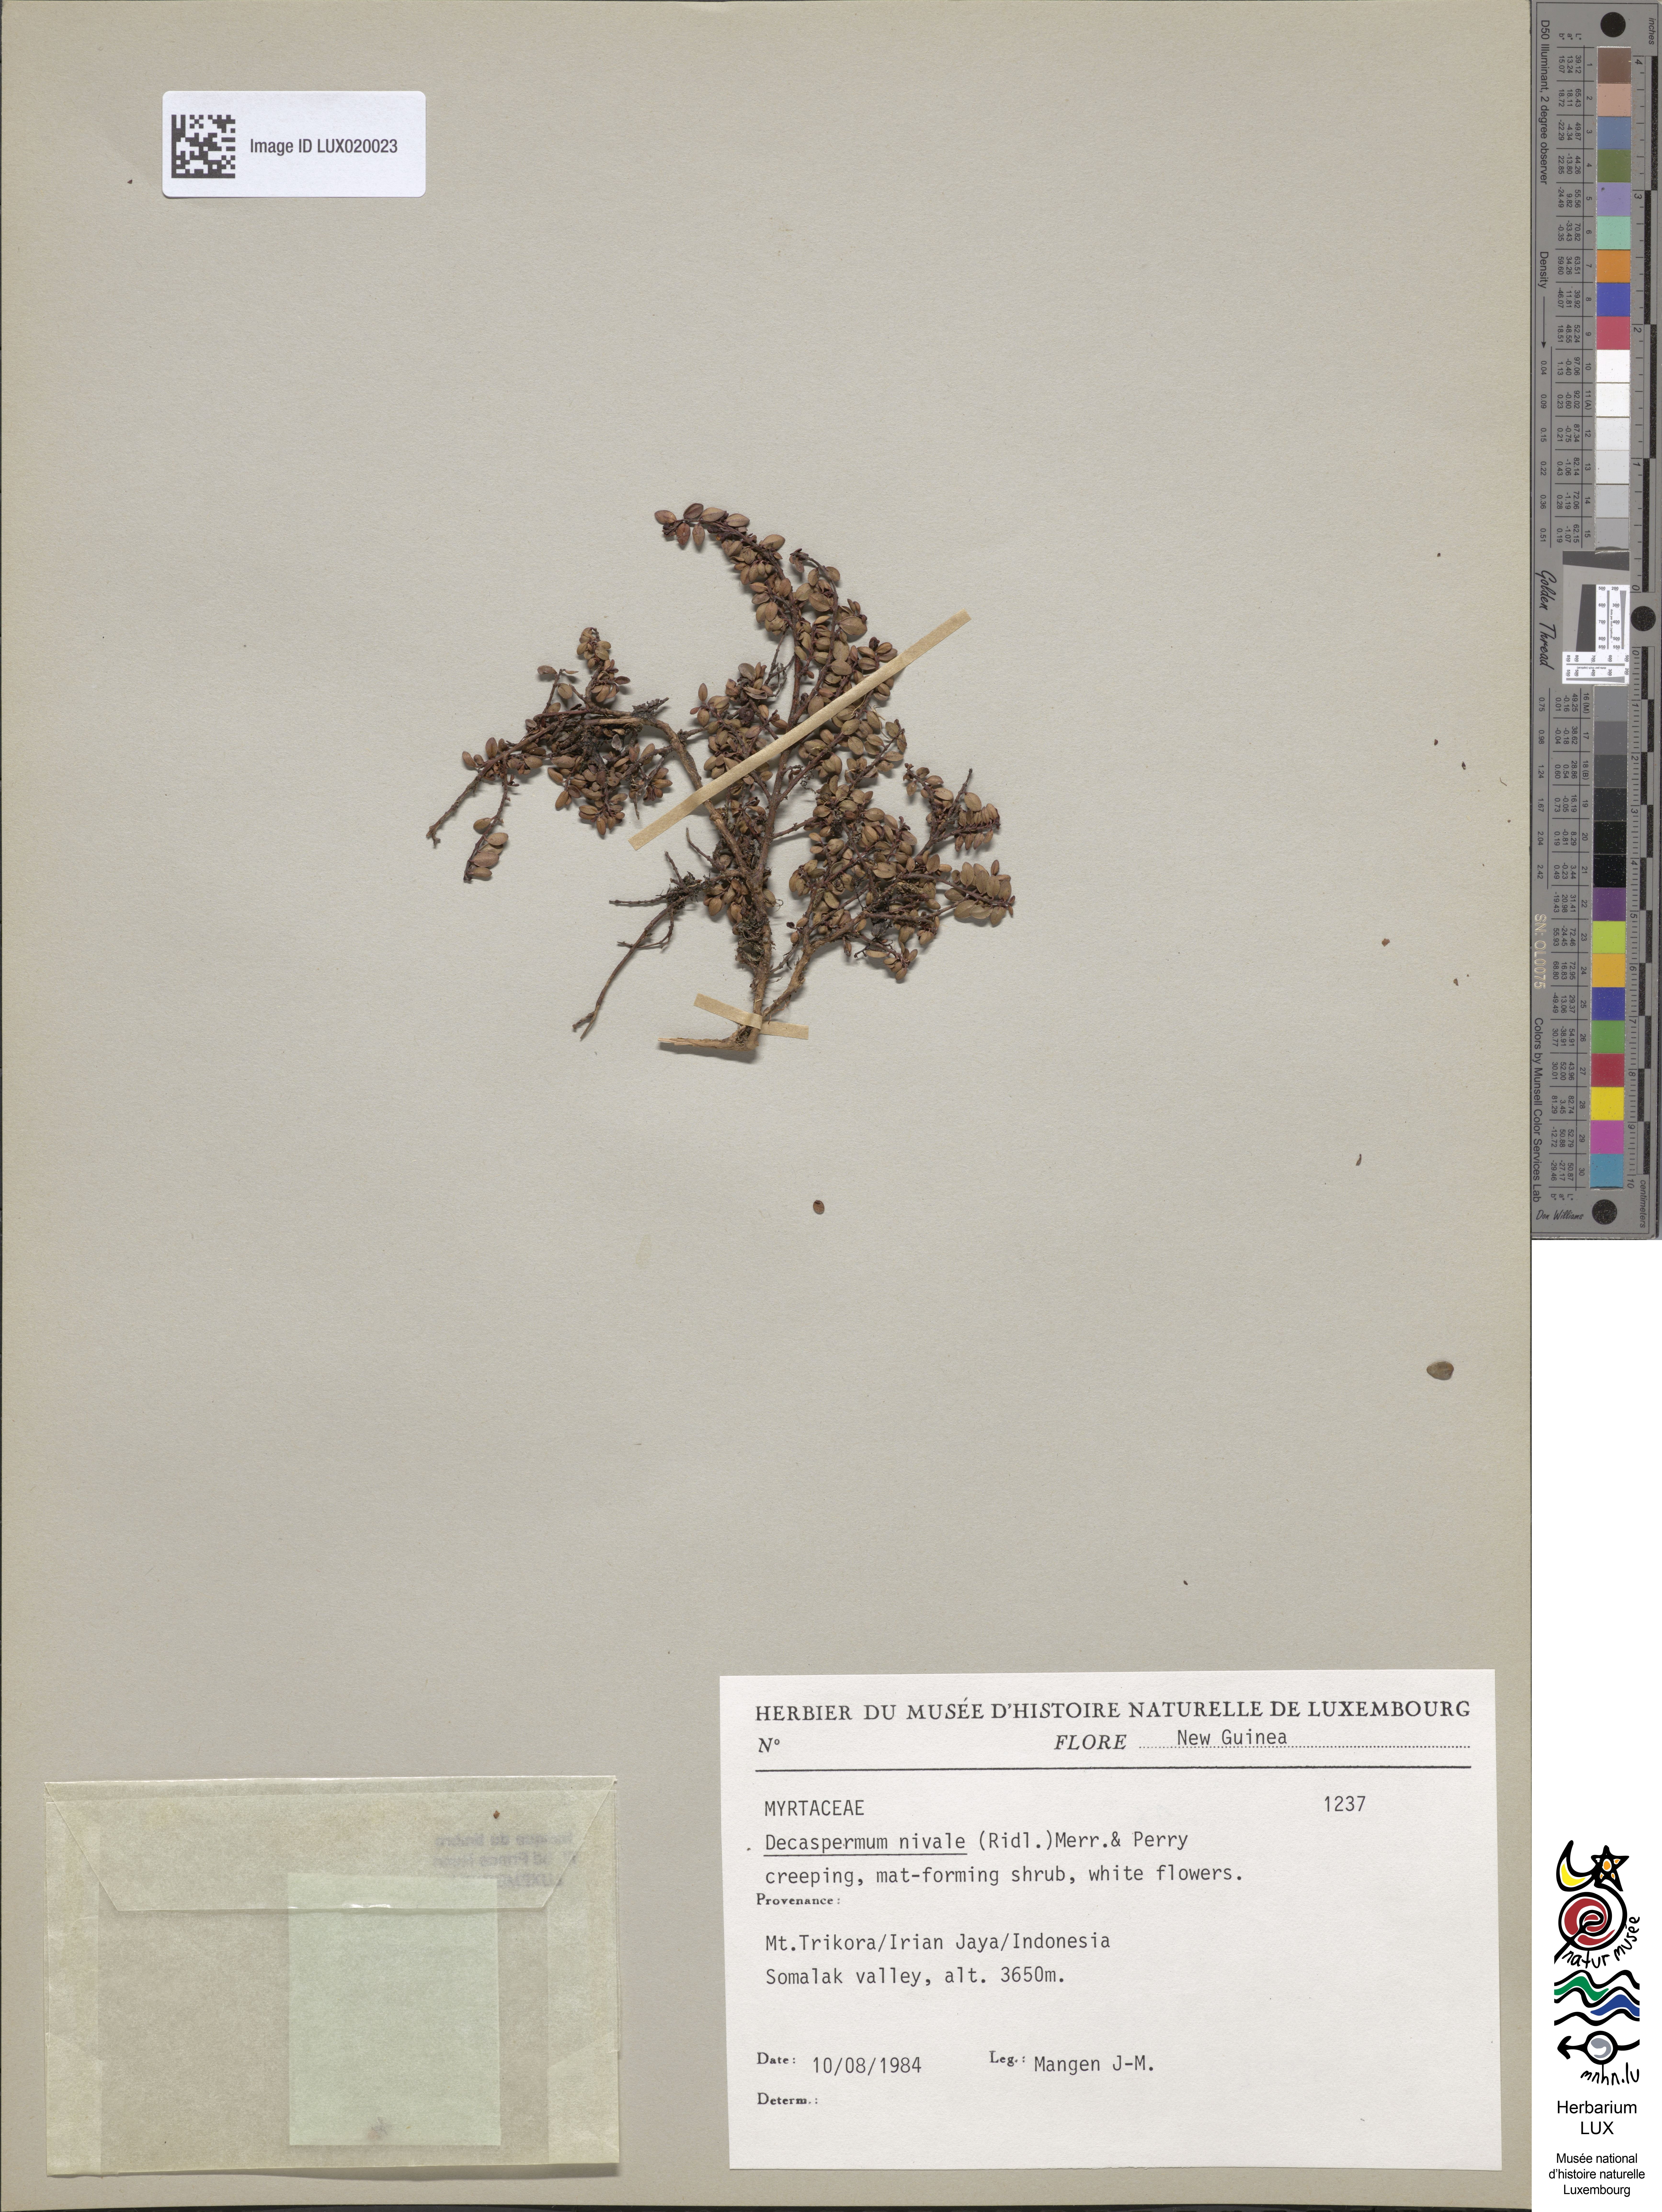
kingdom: Plantae
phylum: Tracheophyta
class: Magnoliopsida
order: Myrtales
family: Myrtaceae
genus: Decaspermum
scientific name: Decaspermum nivale
